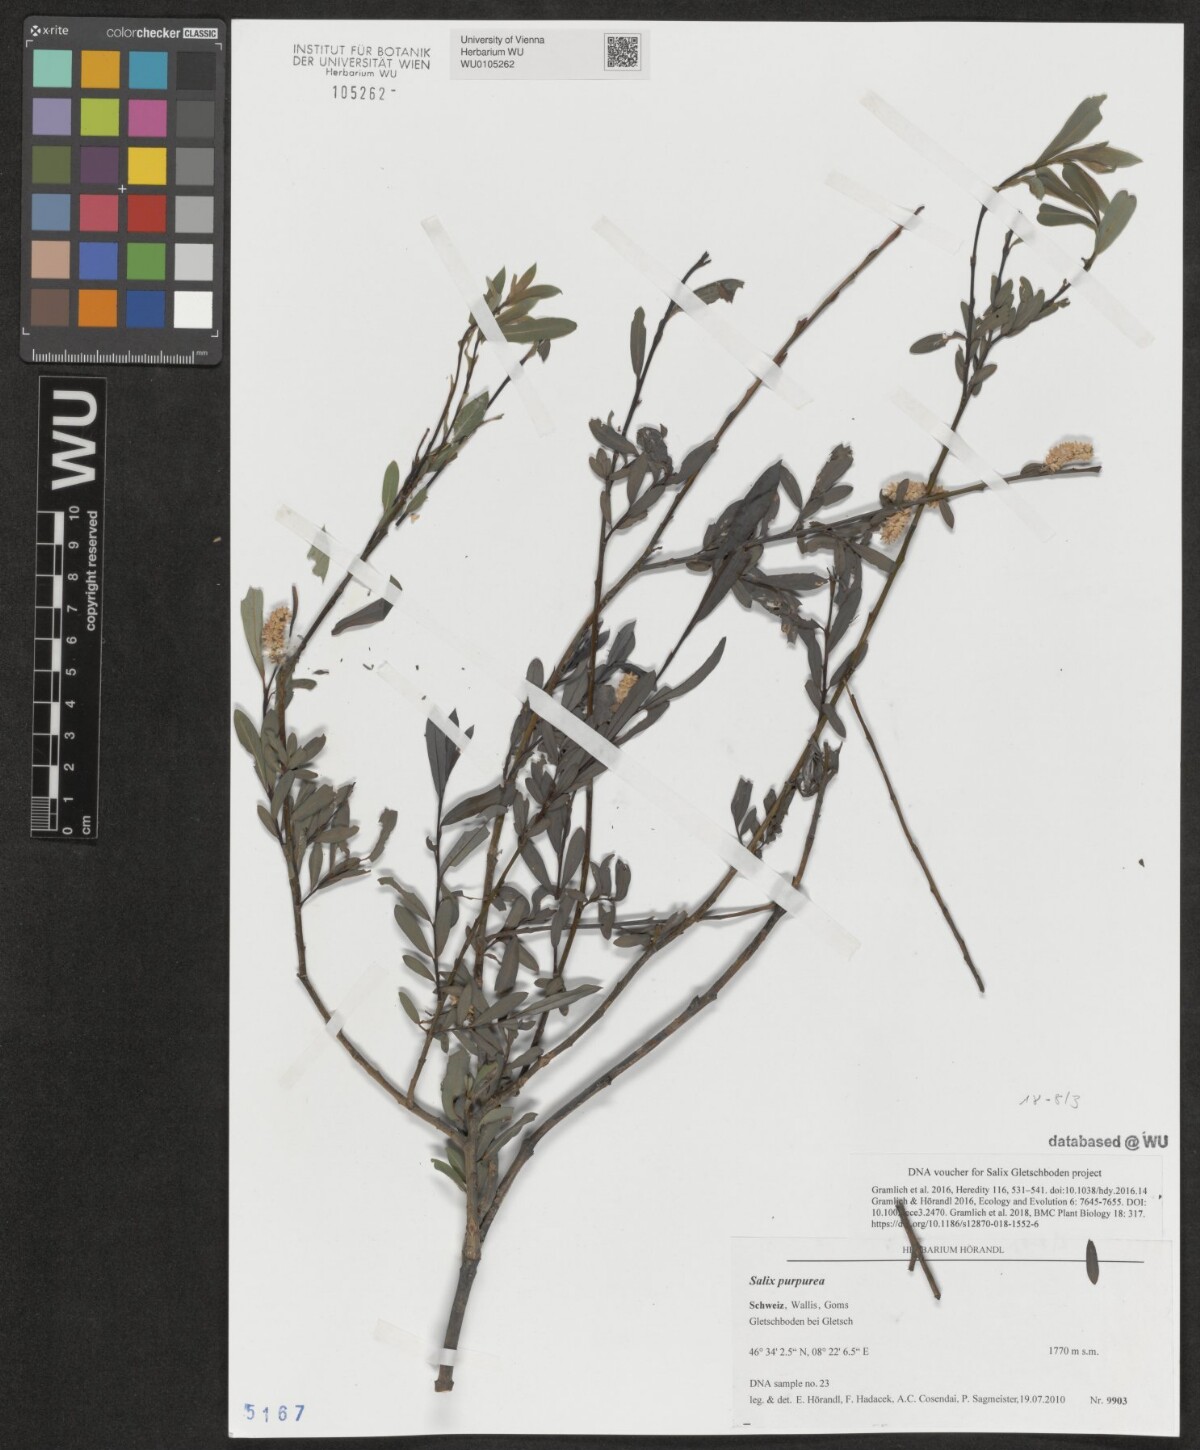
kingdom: Plantae
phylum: Tracheophyta
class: Magnoliopsida
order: Malpighiales
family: Salicaceae
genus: Salix
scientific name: Salix purpurea
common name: Purple willow
